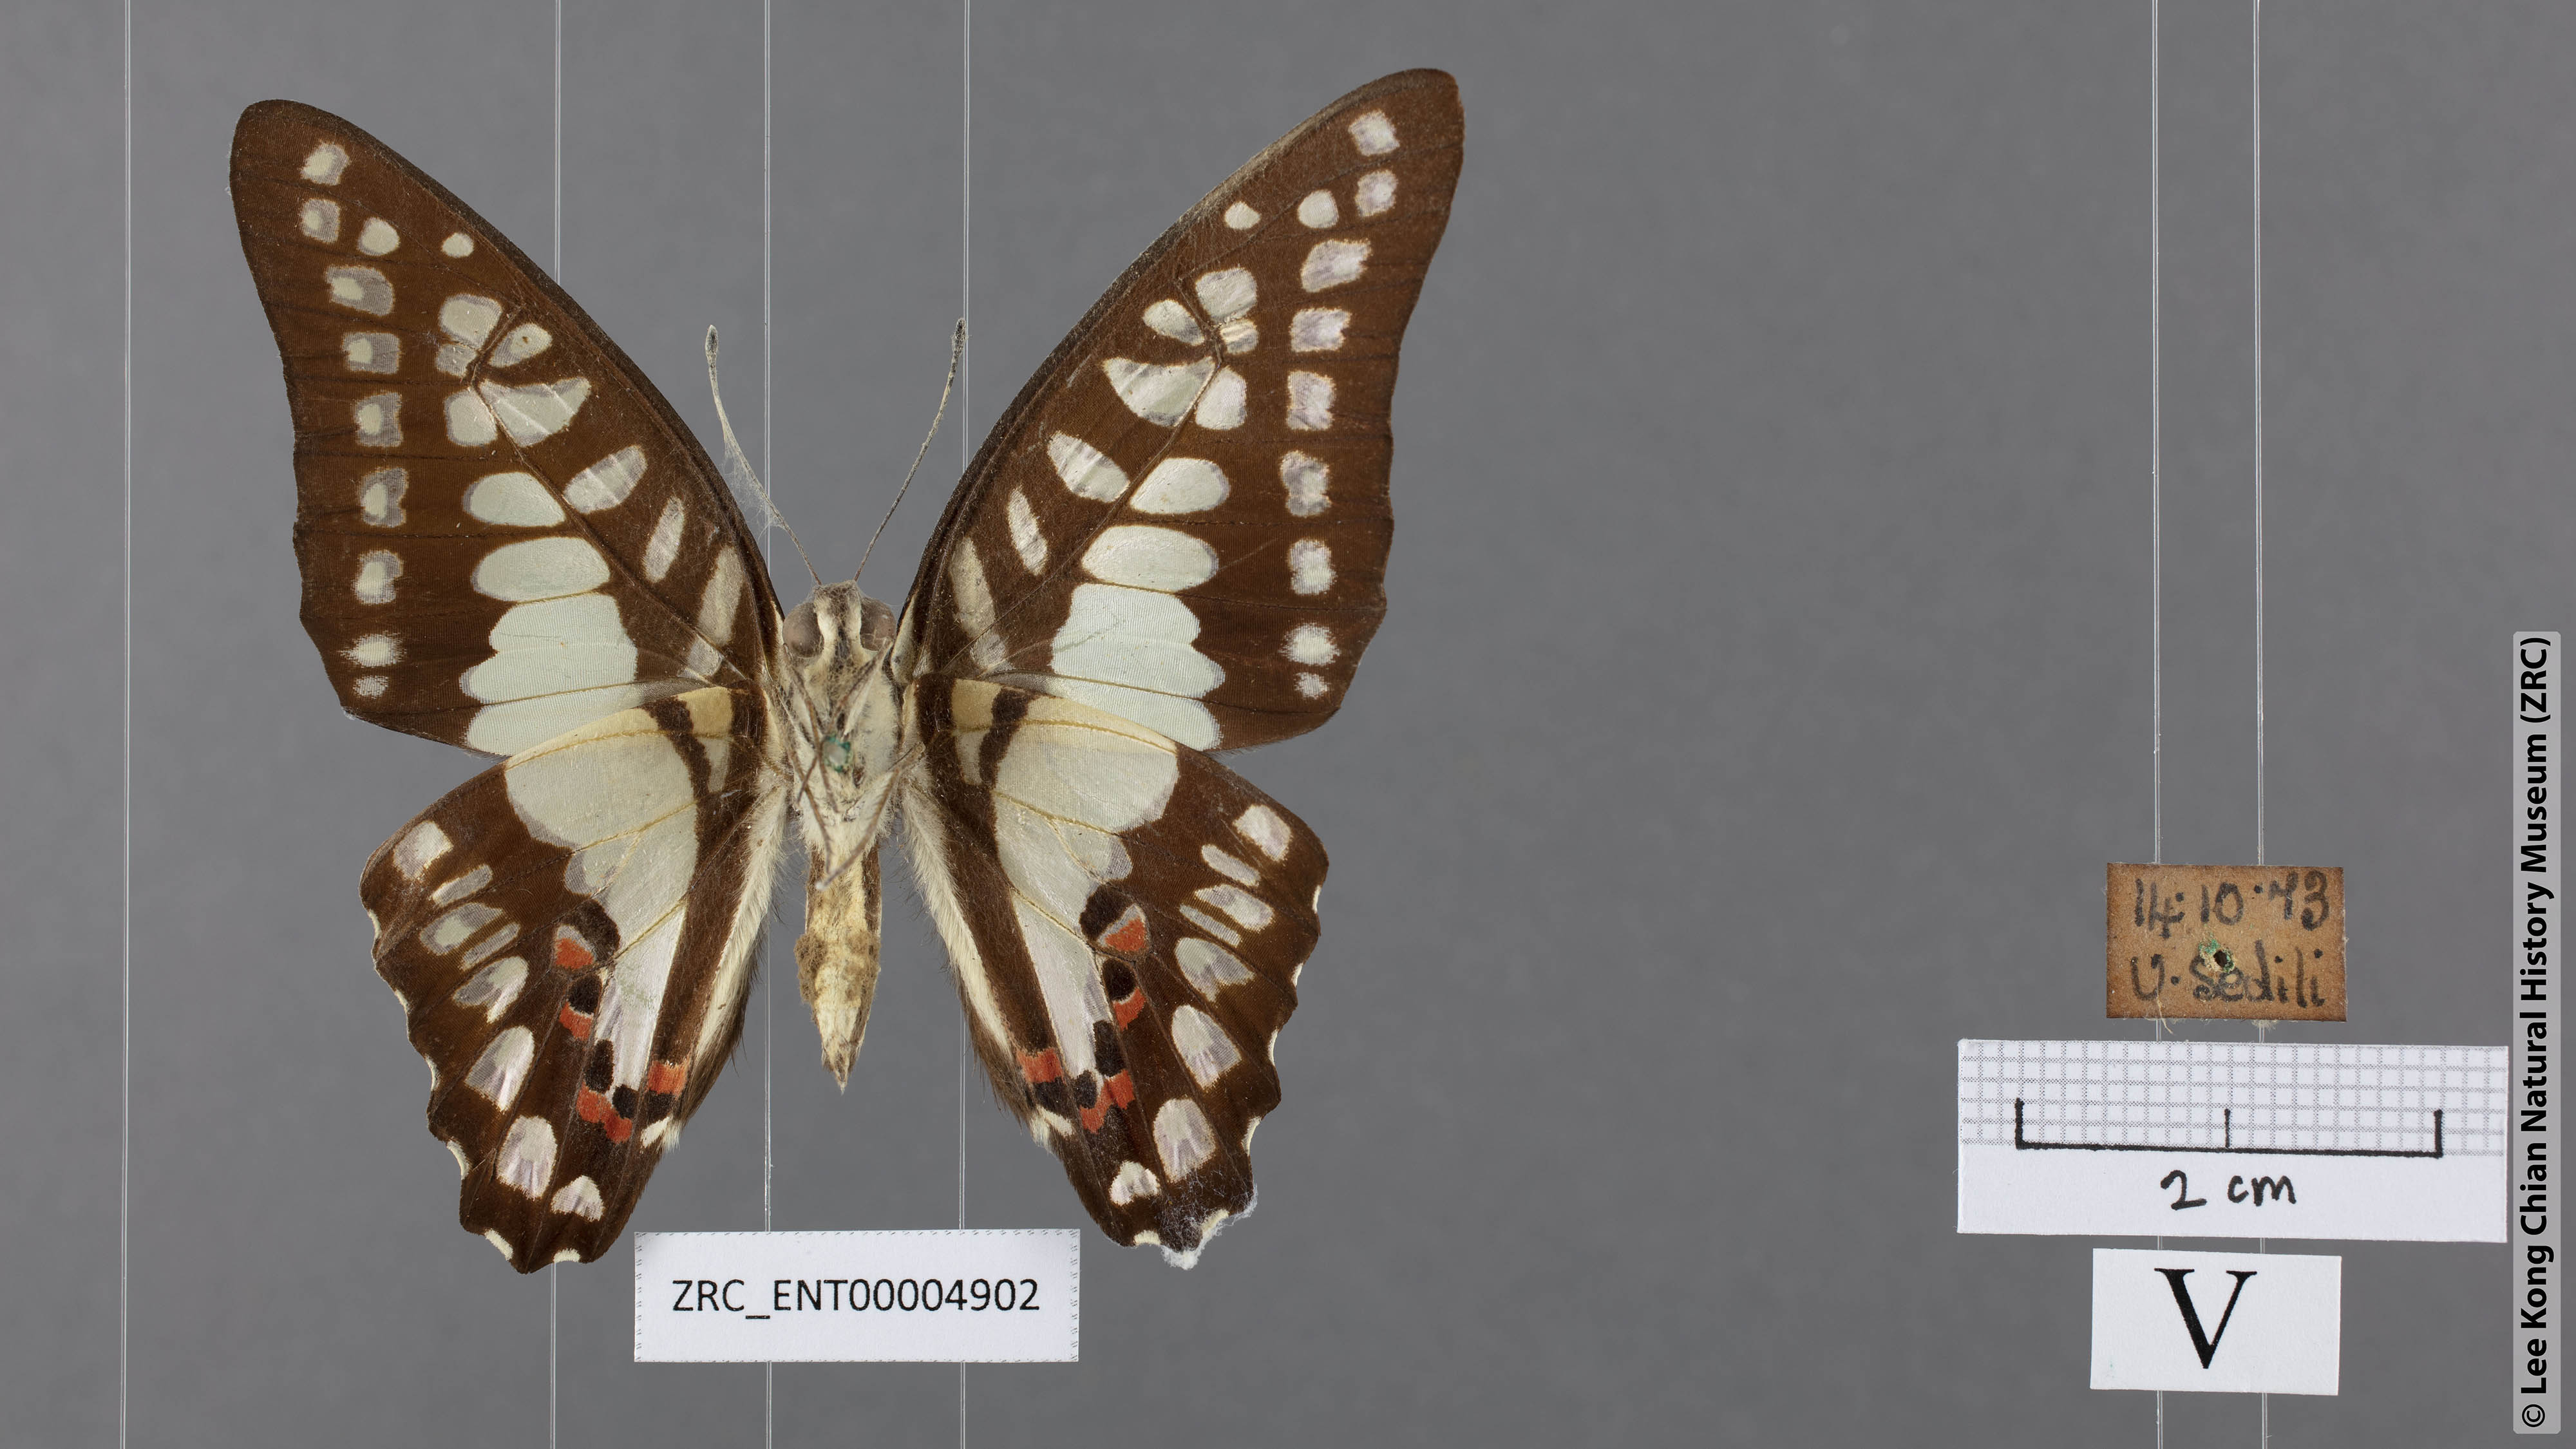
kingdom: Animalia
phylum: Arthropoda
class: Insecta
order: Lepidoptera
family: Papilionidae
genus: Graphium
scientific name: Graphium evemon
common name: Lesser jay
